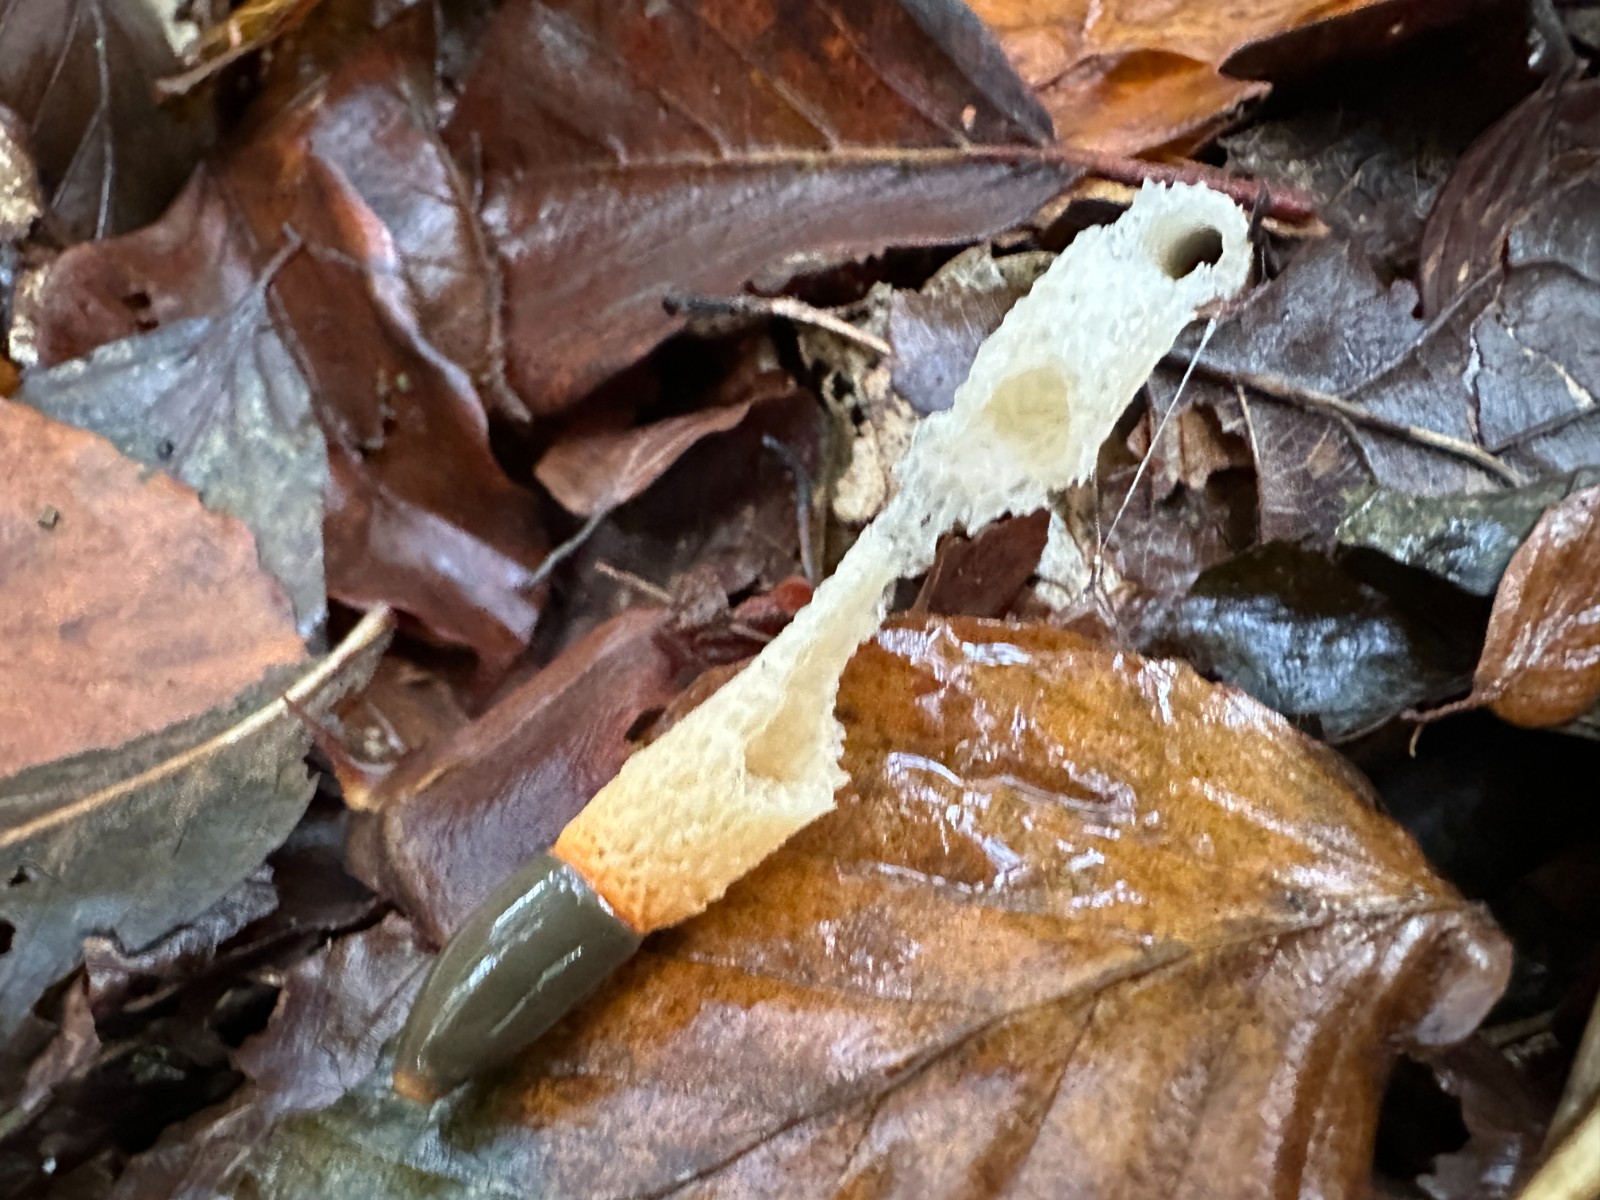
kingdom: Fungi
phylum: Basidiomycota
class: Agaricomycetes
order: Phallales
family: Phallaceae
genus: Mutinus
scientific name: Mutinus caninus
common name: hunde-stinksvamp
